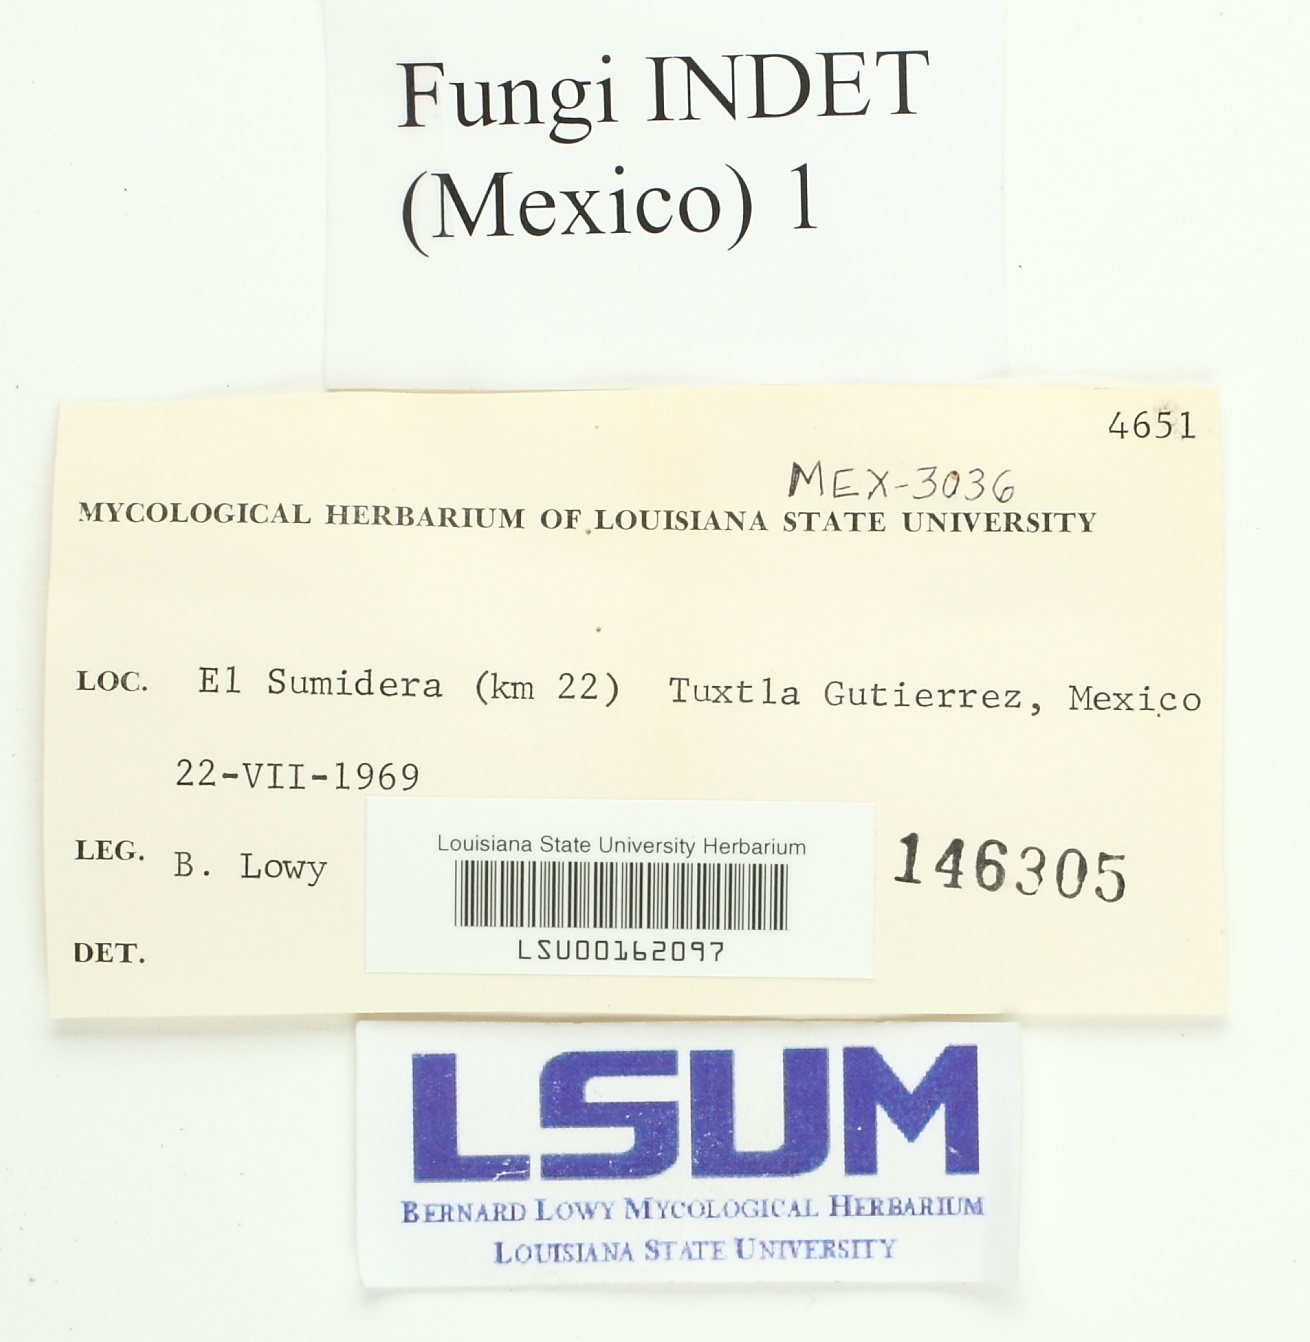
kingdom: Fungi
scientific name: Fungi
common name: Fungi
